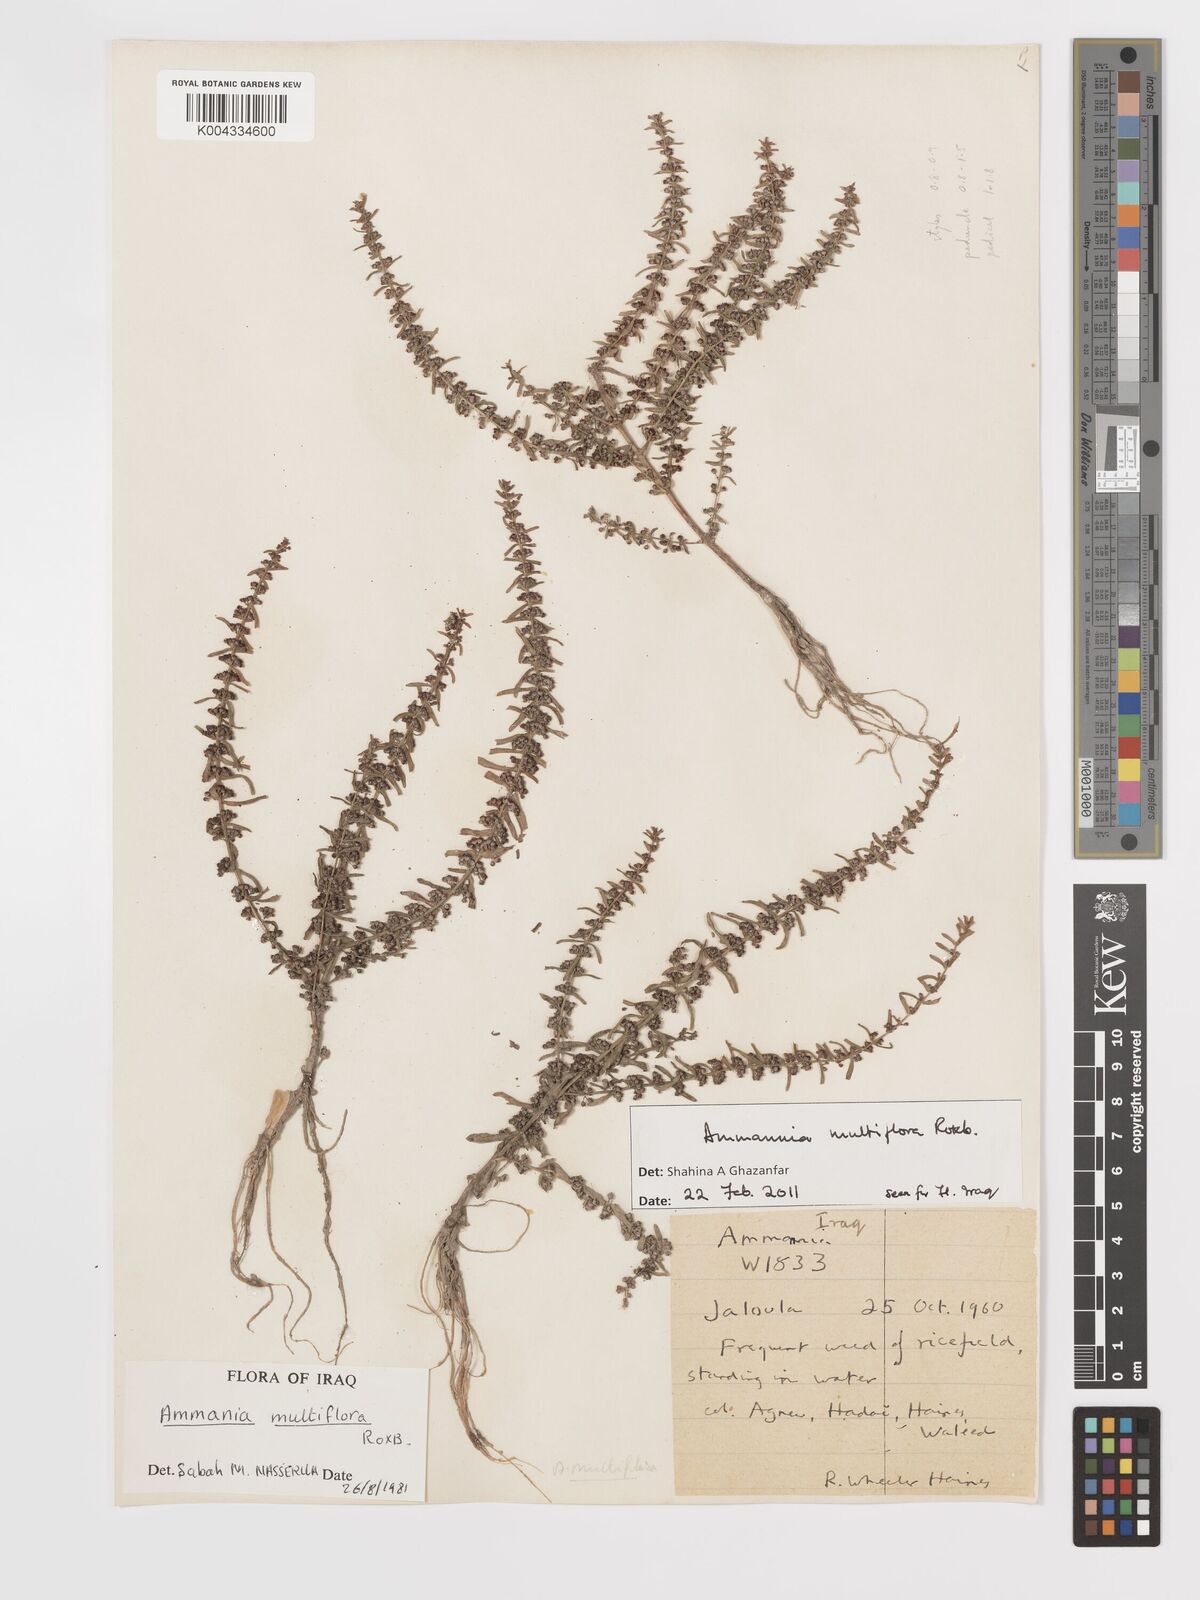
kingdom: Plantae
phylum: Tracheophyta
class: Magnoliopsida
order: Myrtales
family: Lythraceae
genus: Ammannia
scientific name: Ammannia auriculata
